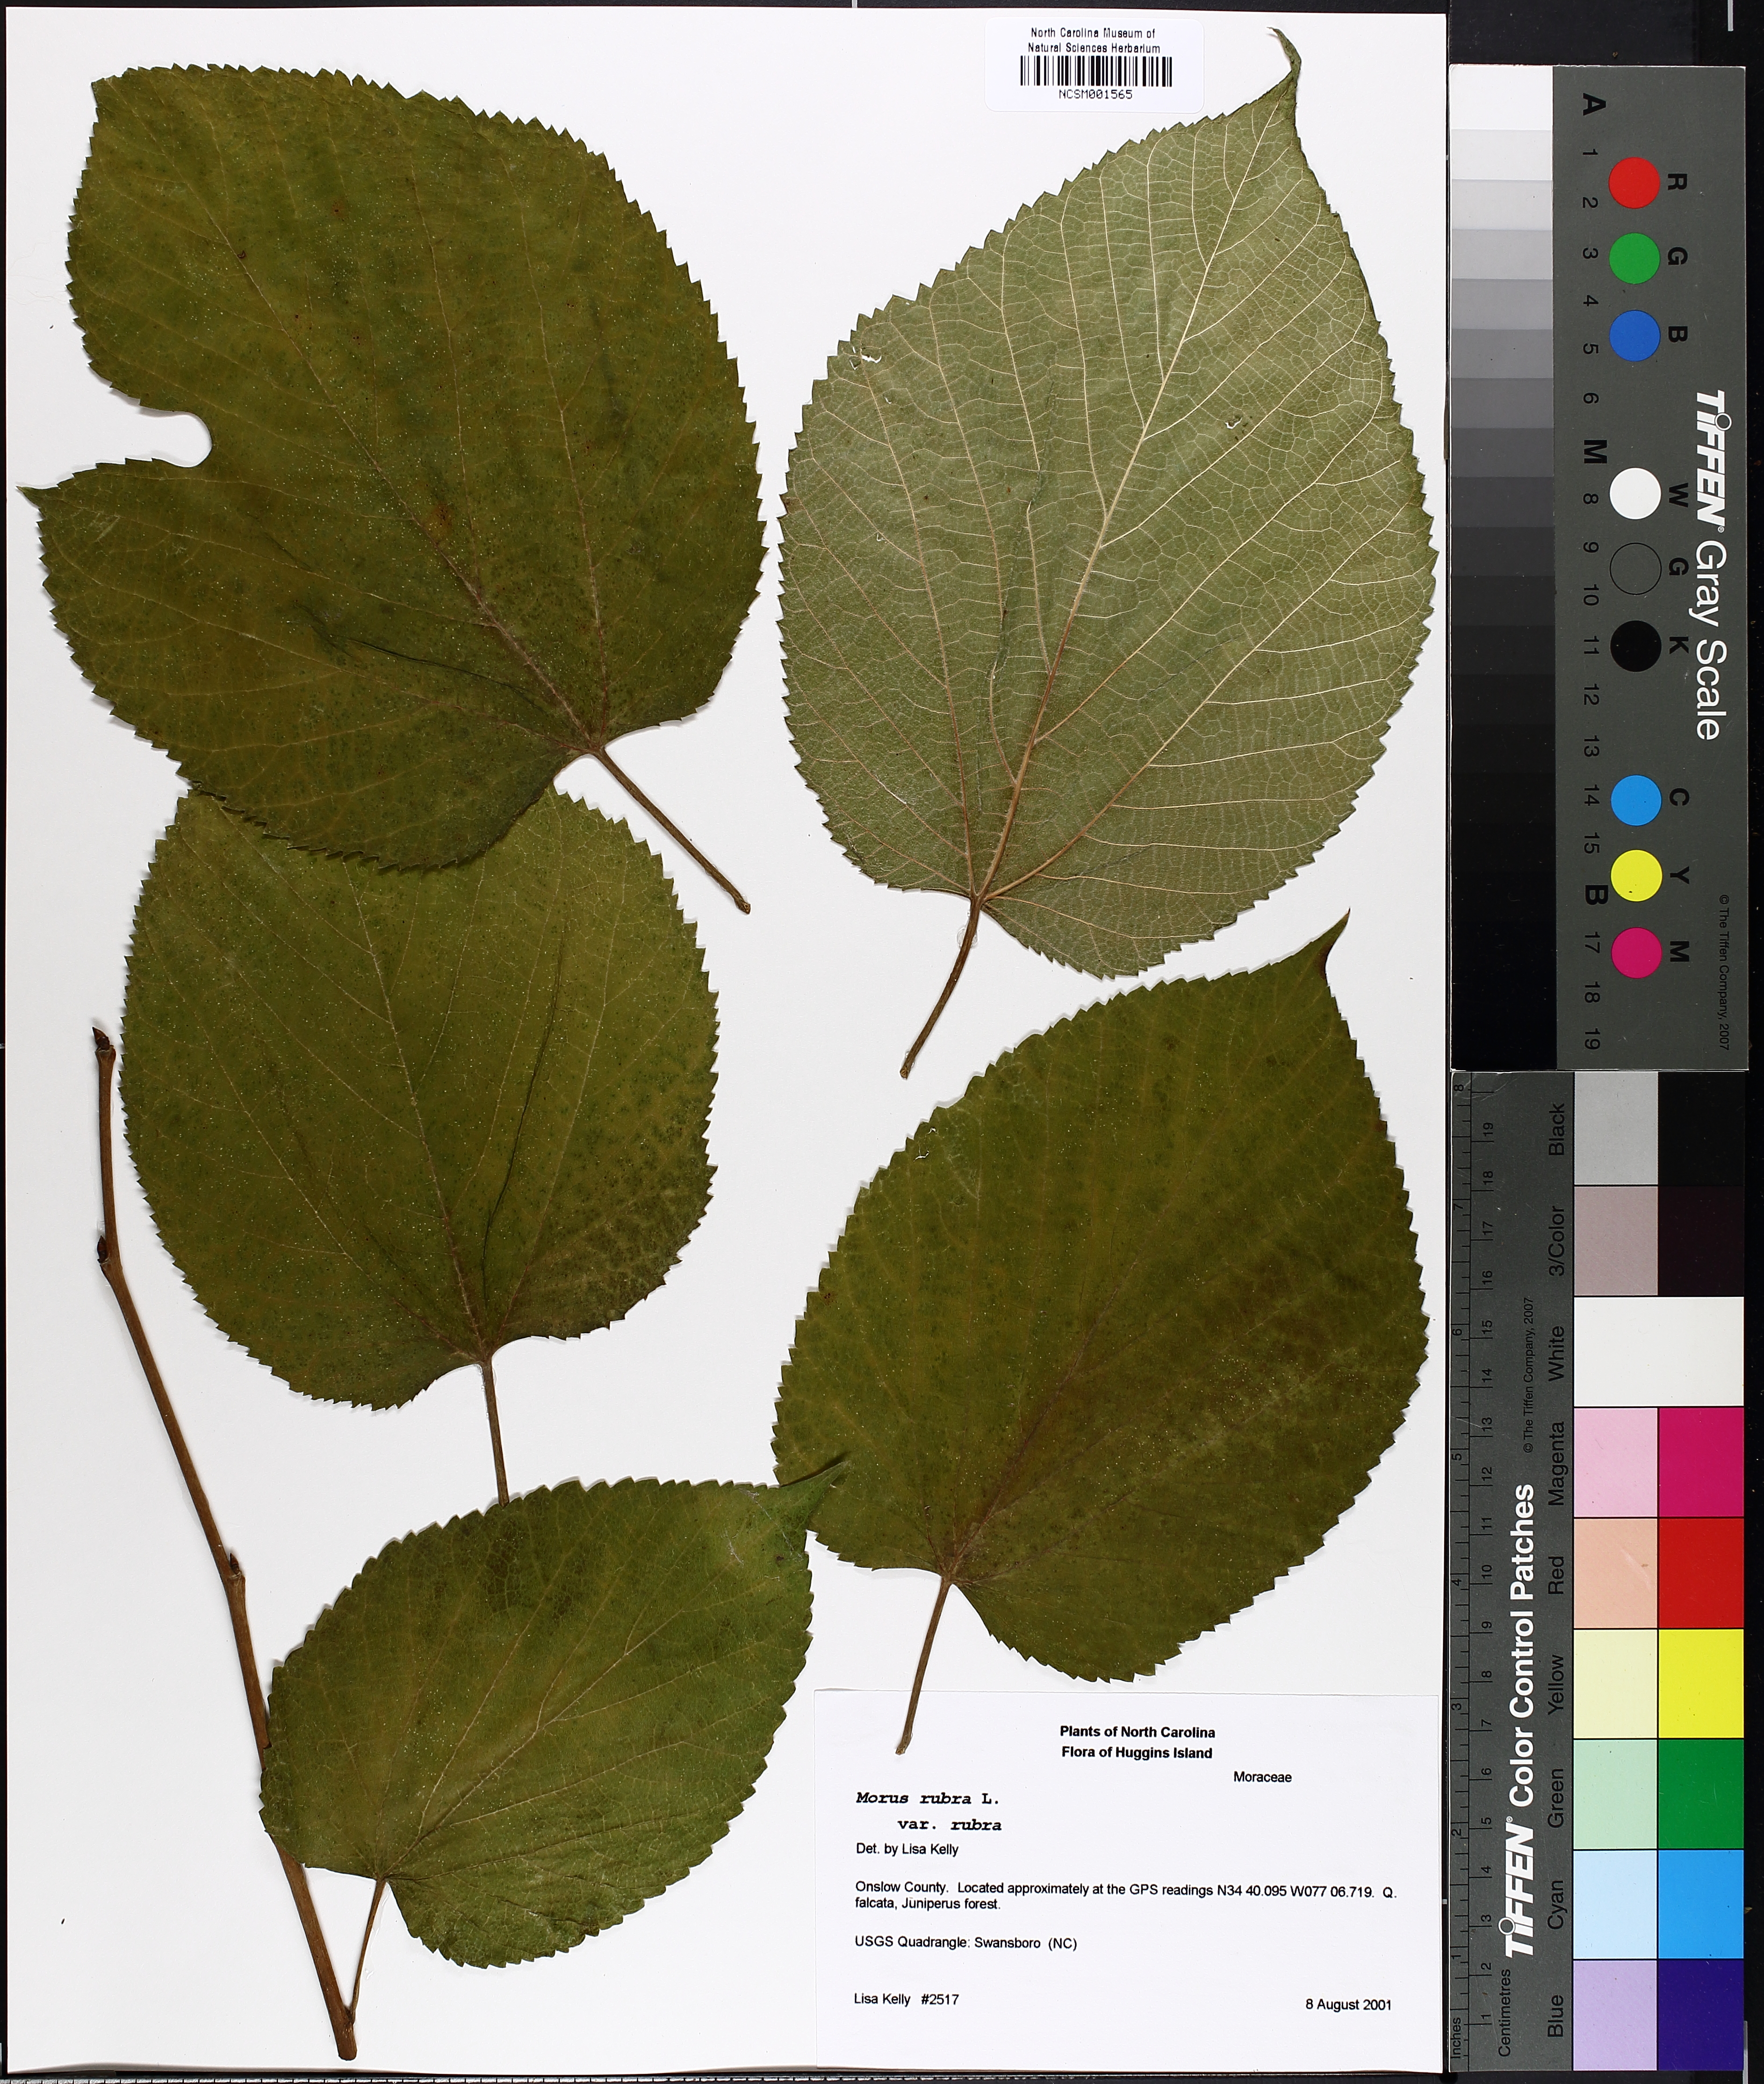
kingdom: Plantae
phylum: Tracheophyta
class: Magnoliopsida
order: Rosales
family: Moraceae
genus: Morus
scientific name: Morus rubra
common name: Red mulberry
